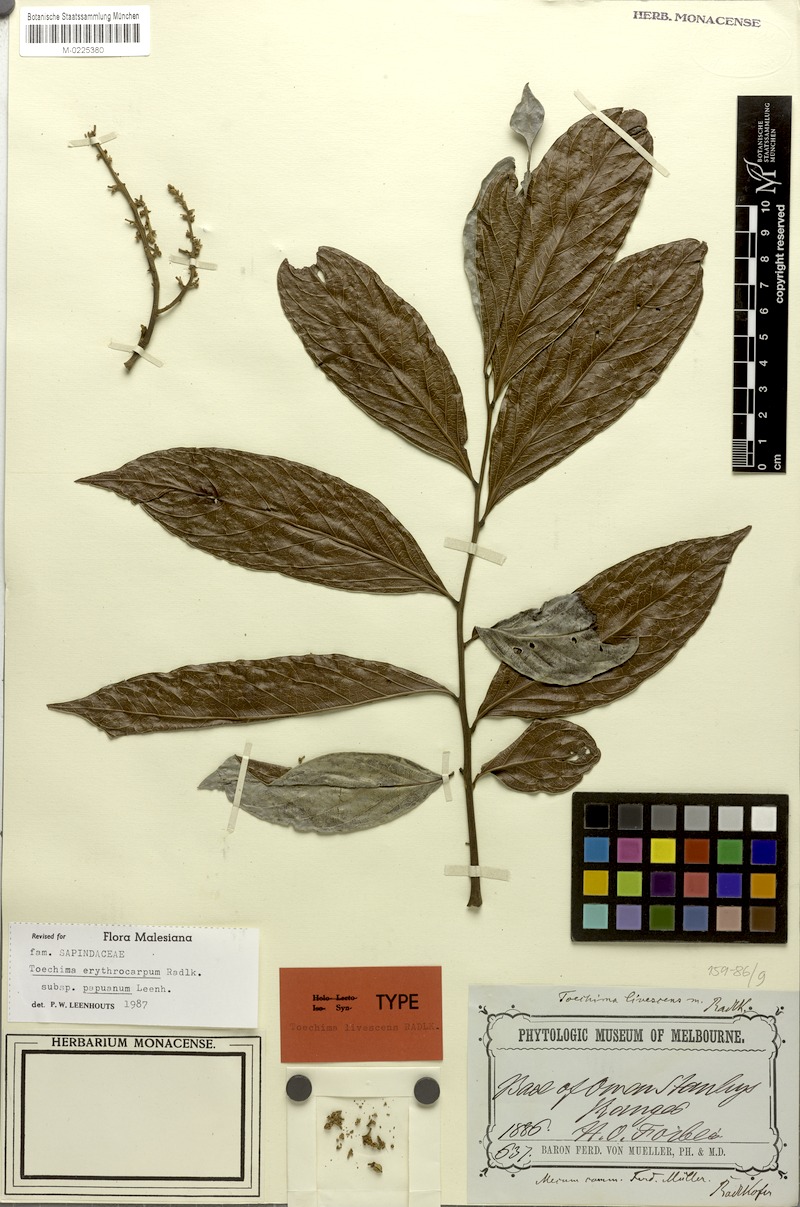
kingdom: Plantae
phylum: Tracheophyta
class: Magnoliopsida
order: Sapindales
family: Sapindaceae
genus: Toechima
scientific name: Toechima erythrocarpum
